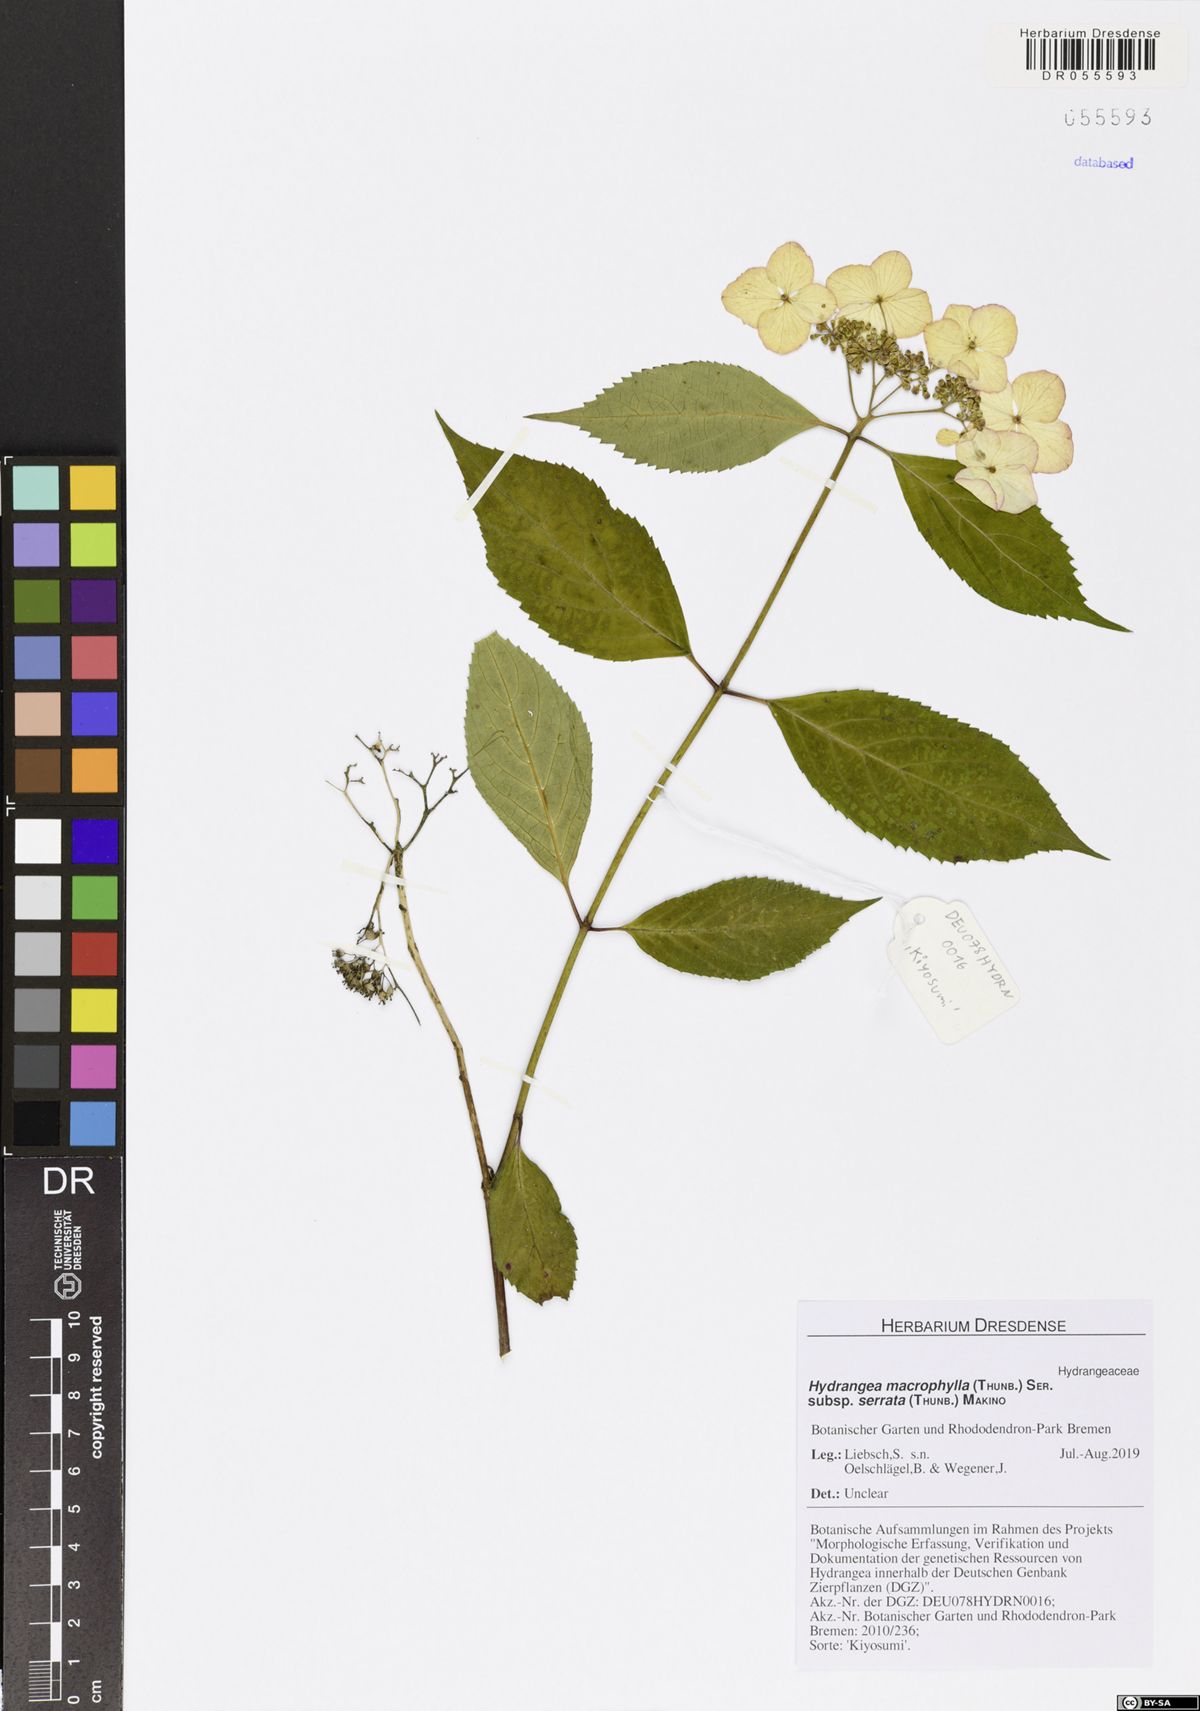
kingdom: Plantae
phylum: Tracheophyta
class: Magnoliopsida
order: Cornales
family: Hydrangeaceae
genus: Hydrangea
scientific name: Hydrangea serrata
